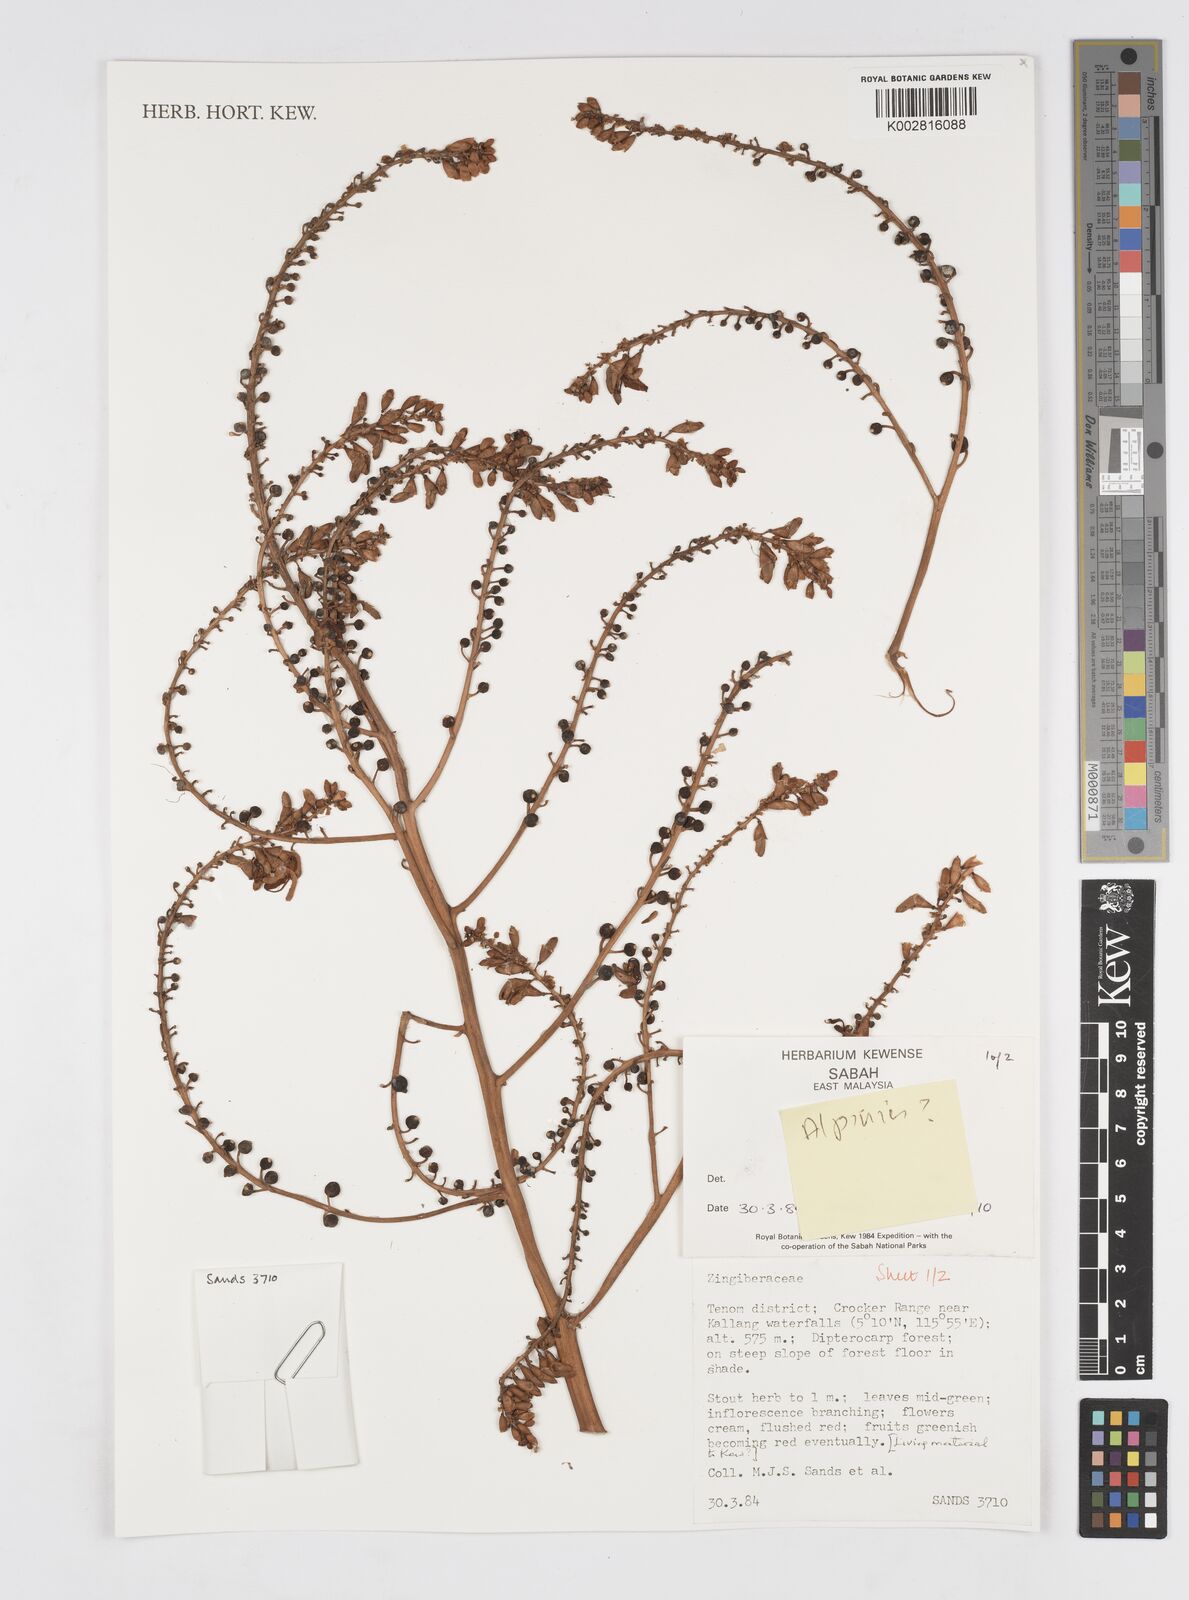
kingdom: Plantae
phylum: Tracheophyta
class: Liliopsida
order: Zingiberales
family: Zingiberaceae
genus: Alpinia
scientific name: Alpinia
